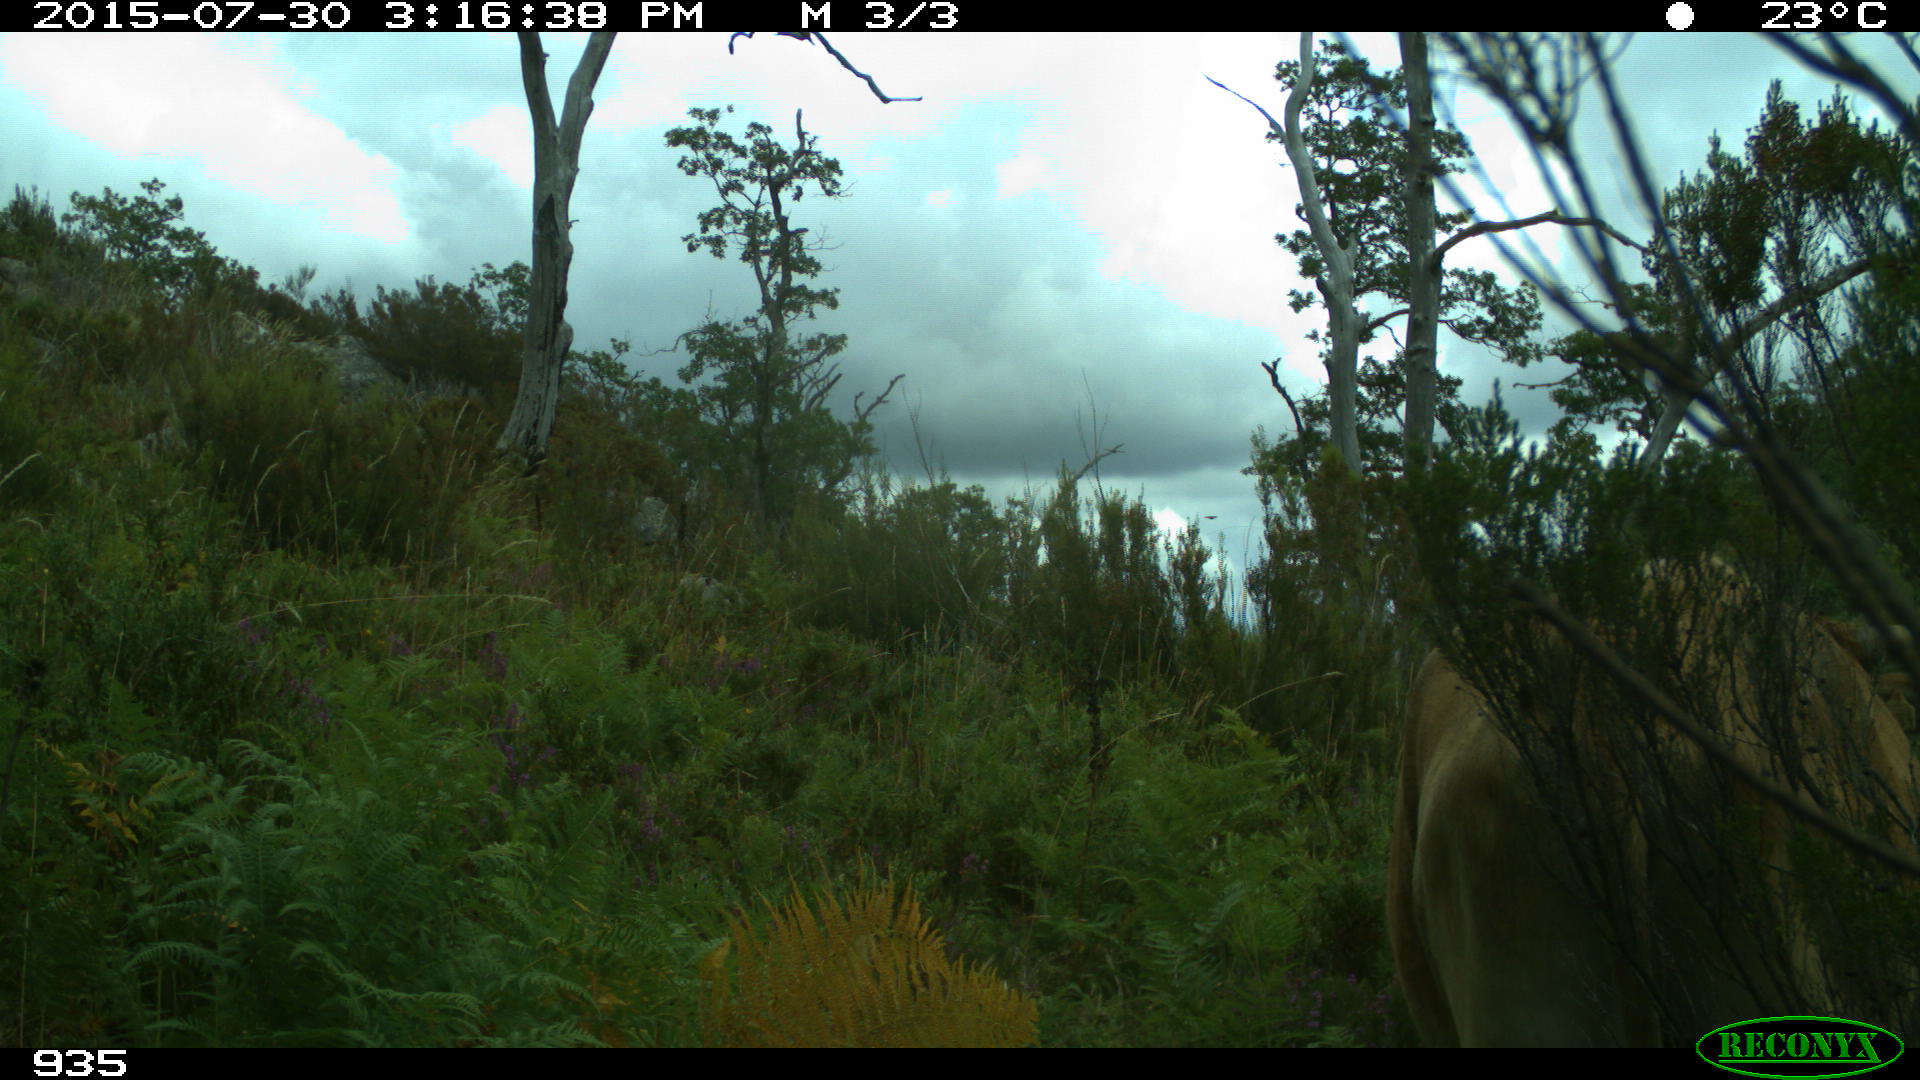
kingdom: Animalia
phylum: Chordata
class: Mammalia
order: Artiodactyla
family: Bovidae
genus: Bos
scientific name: Bos taurus
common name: Domesticated cattle
